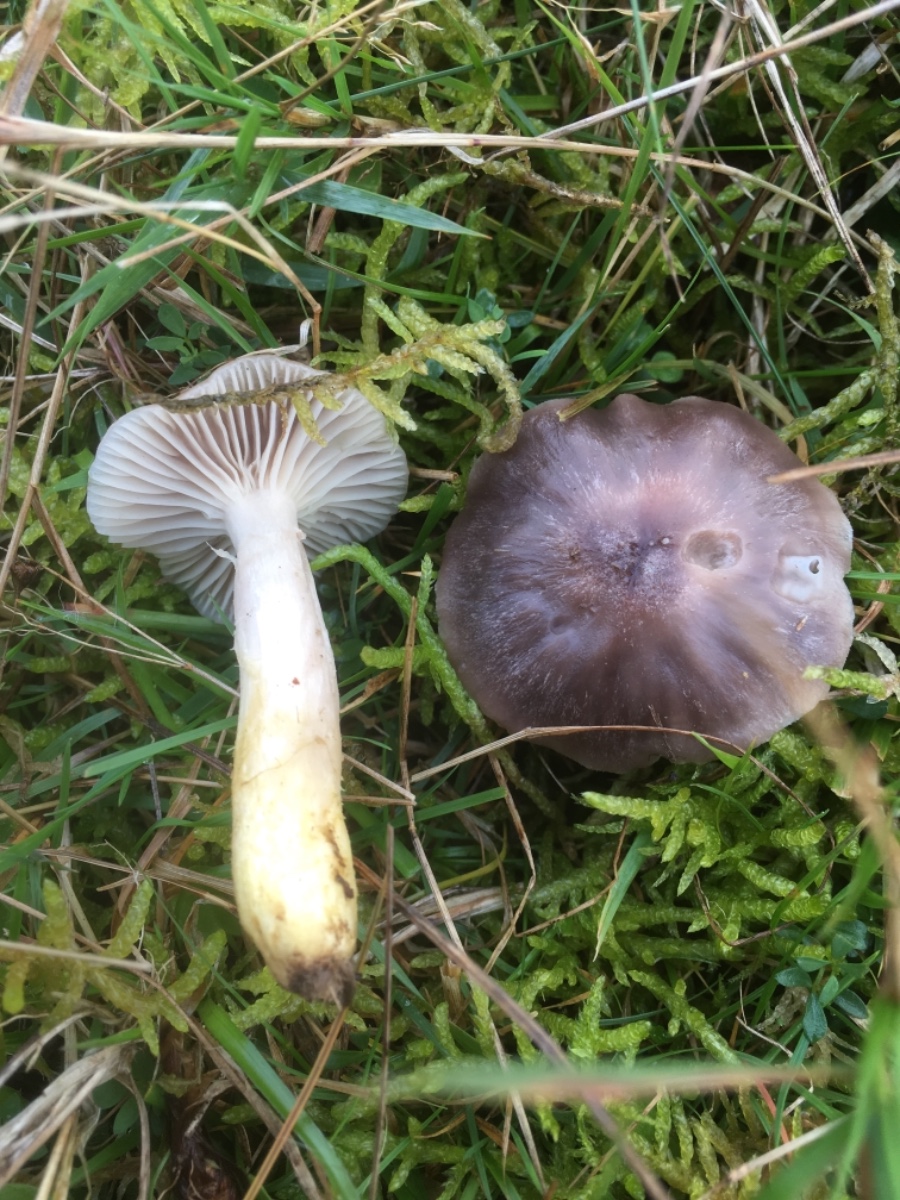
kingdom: Fungi
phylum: Basidiomycota
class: Agaricomycetes
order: Agaricales
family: Hygrophoraceae
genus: Cuphophyllus
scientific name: Cuphophyllus flavipes
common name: gulfodet vokshat
